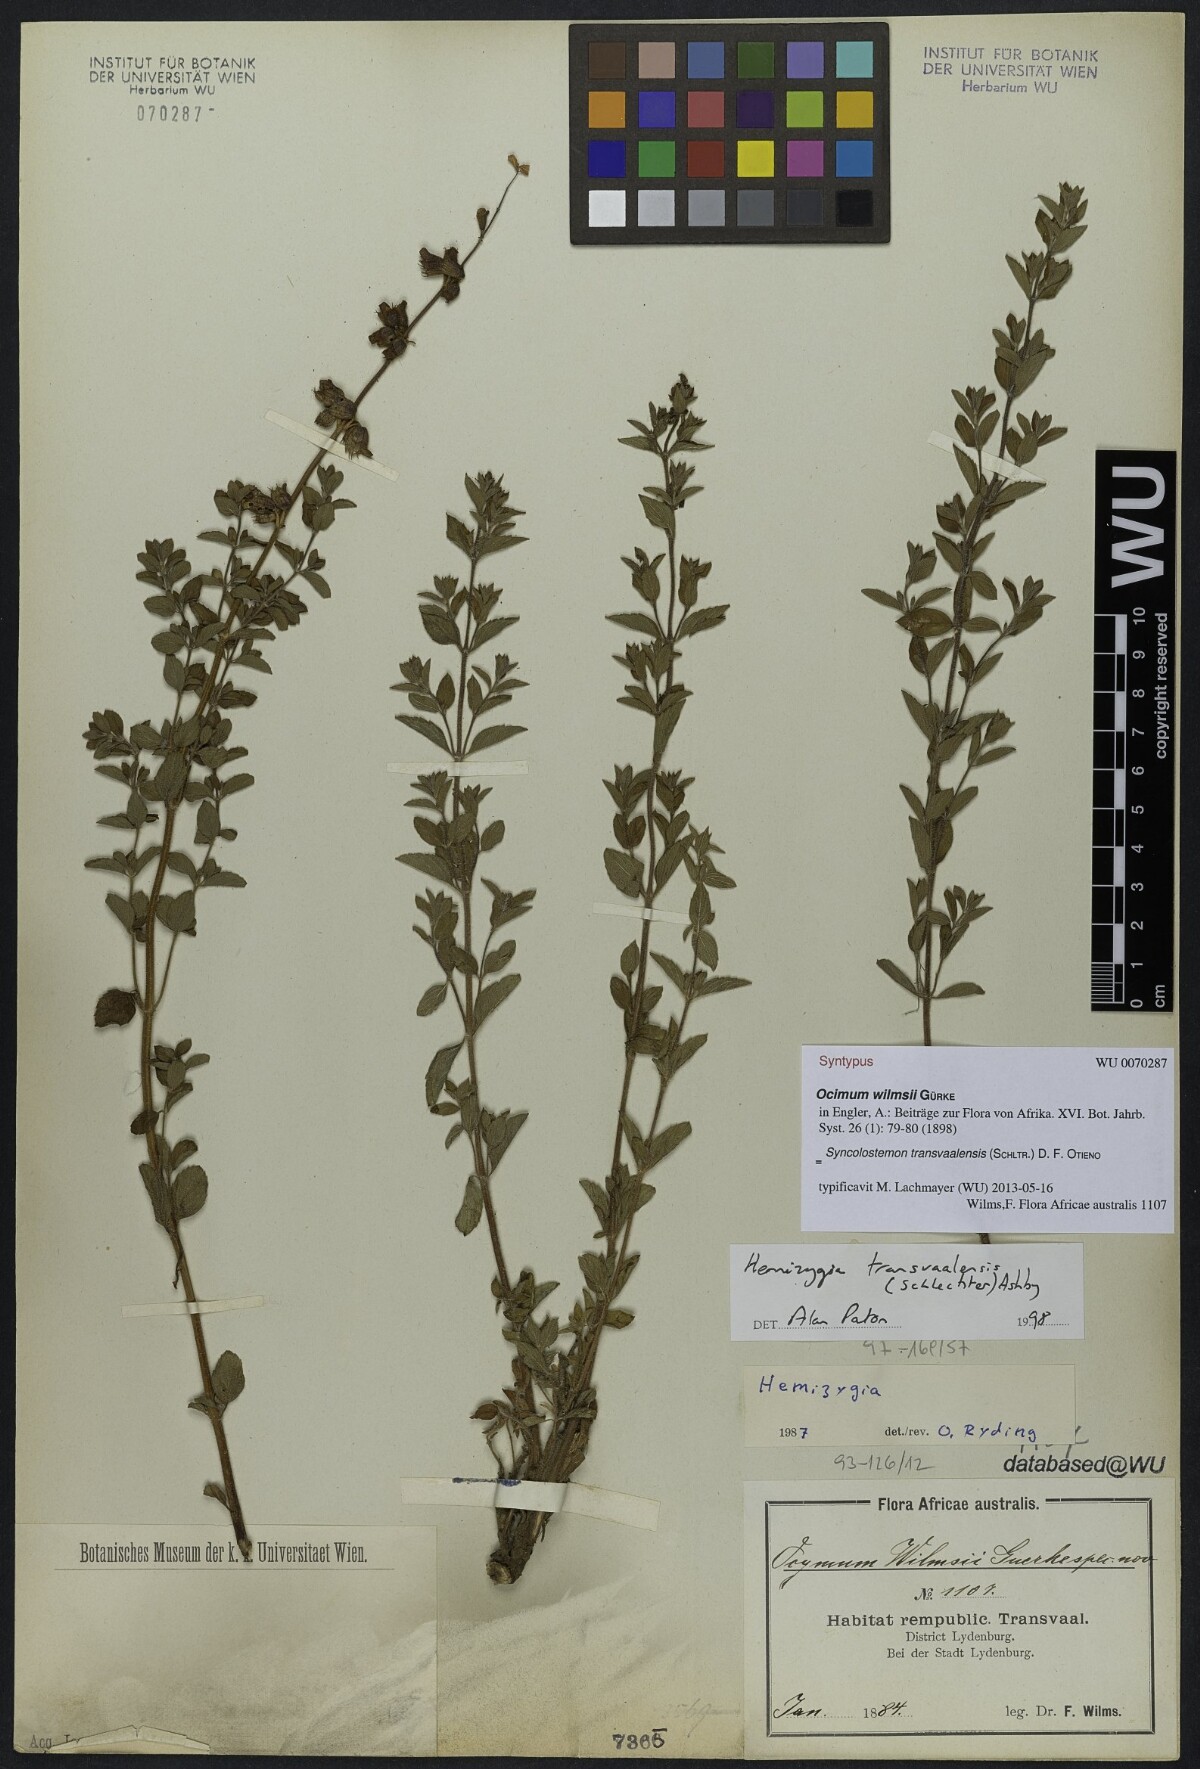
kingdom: Plantae
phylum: Tracheophyta
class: Magnoliopsida
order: Lamiales
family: Lamiaceae
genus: Syncolostemon
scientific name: Syncolostemon transvaalensis
